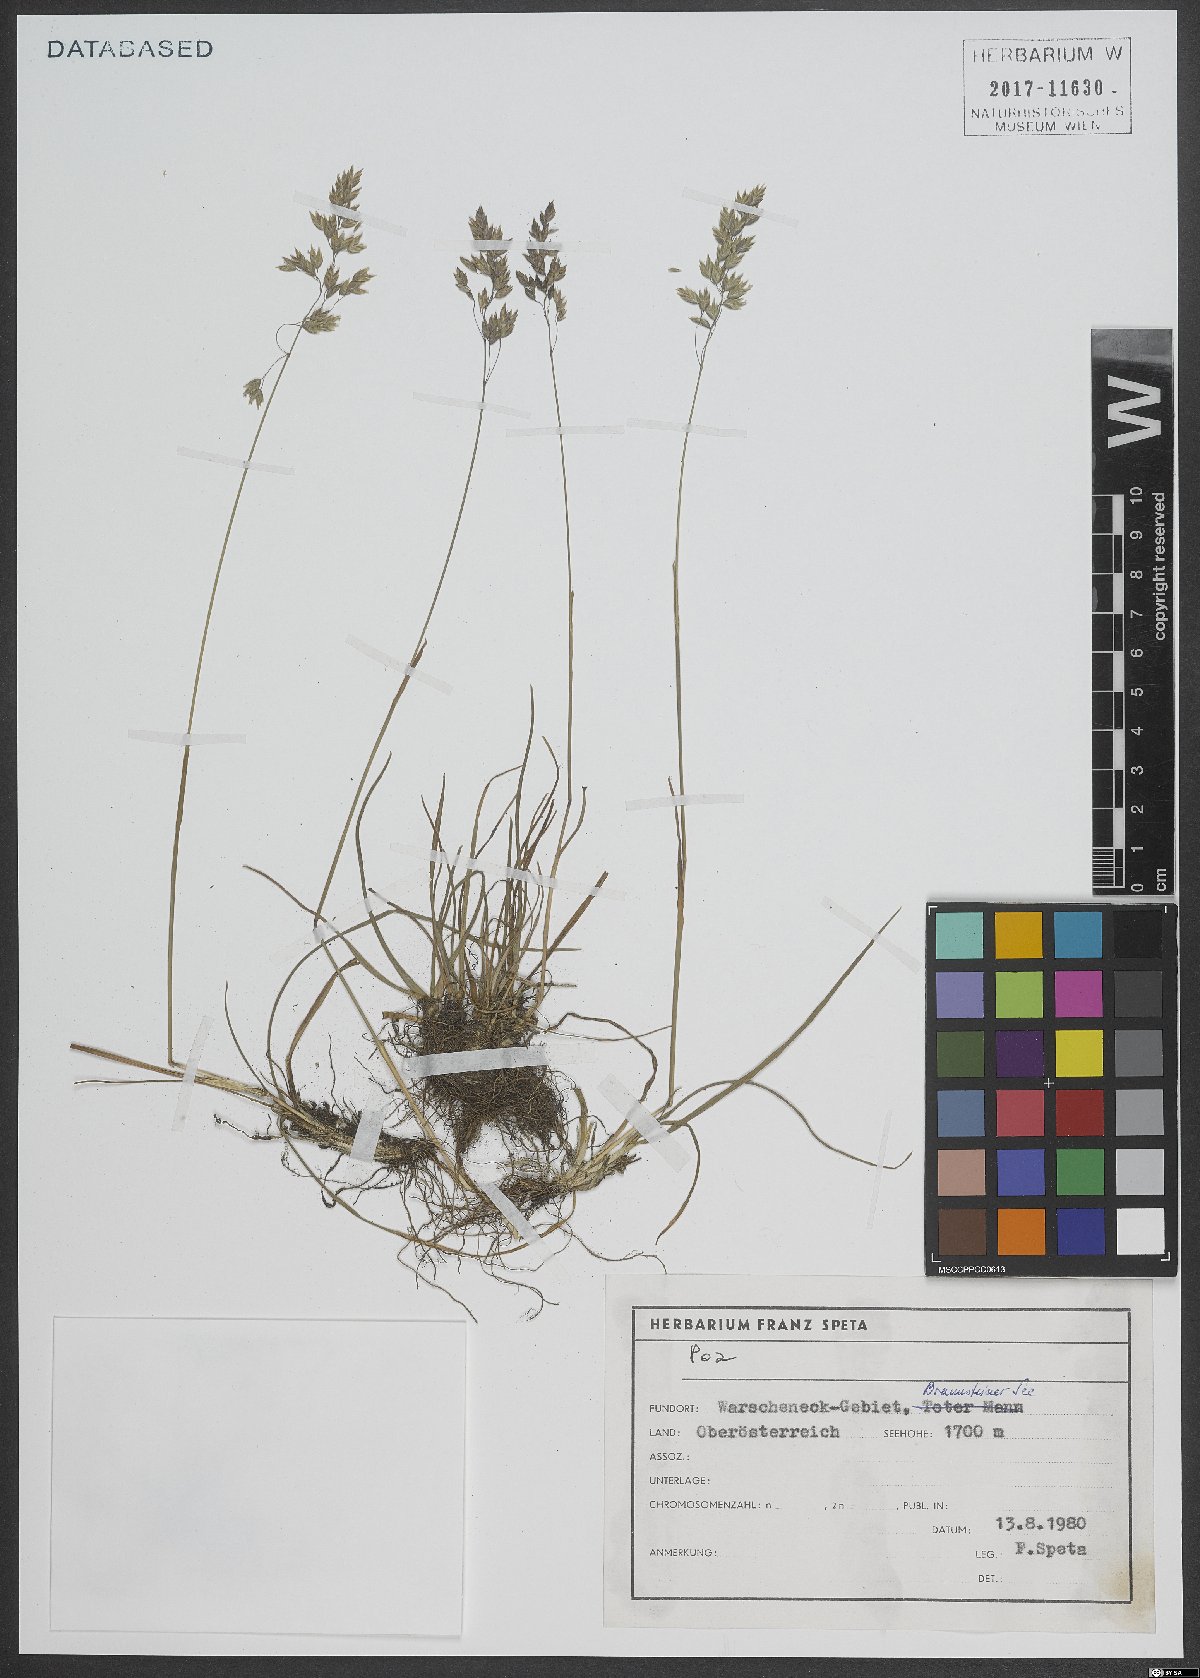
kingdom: Plantae
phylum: Tracheophyta
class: Liliopsida
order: Poales
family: Poaceae
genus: Poa
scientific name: Poa
